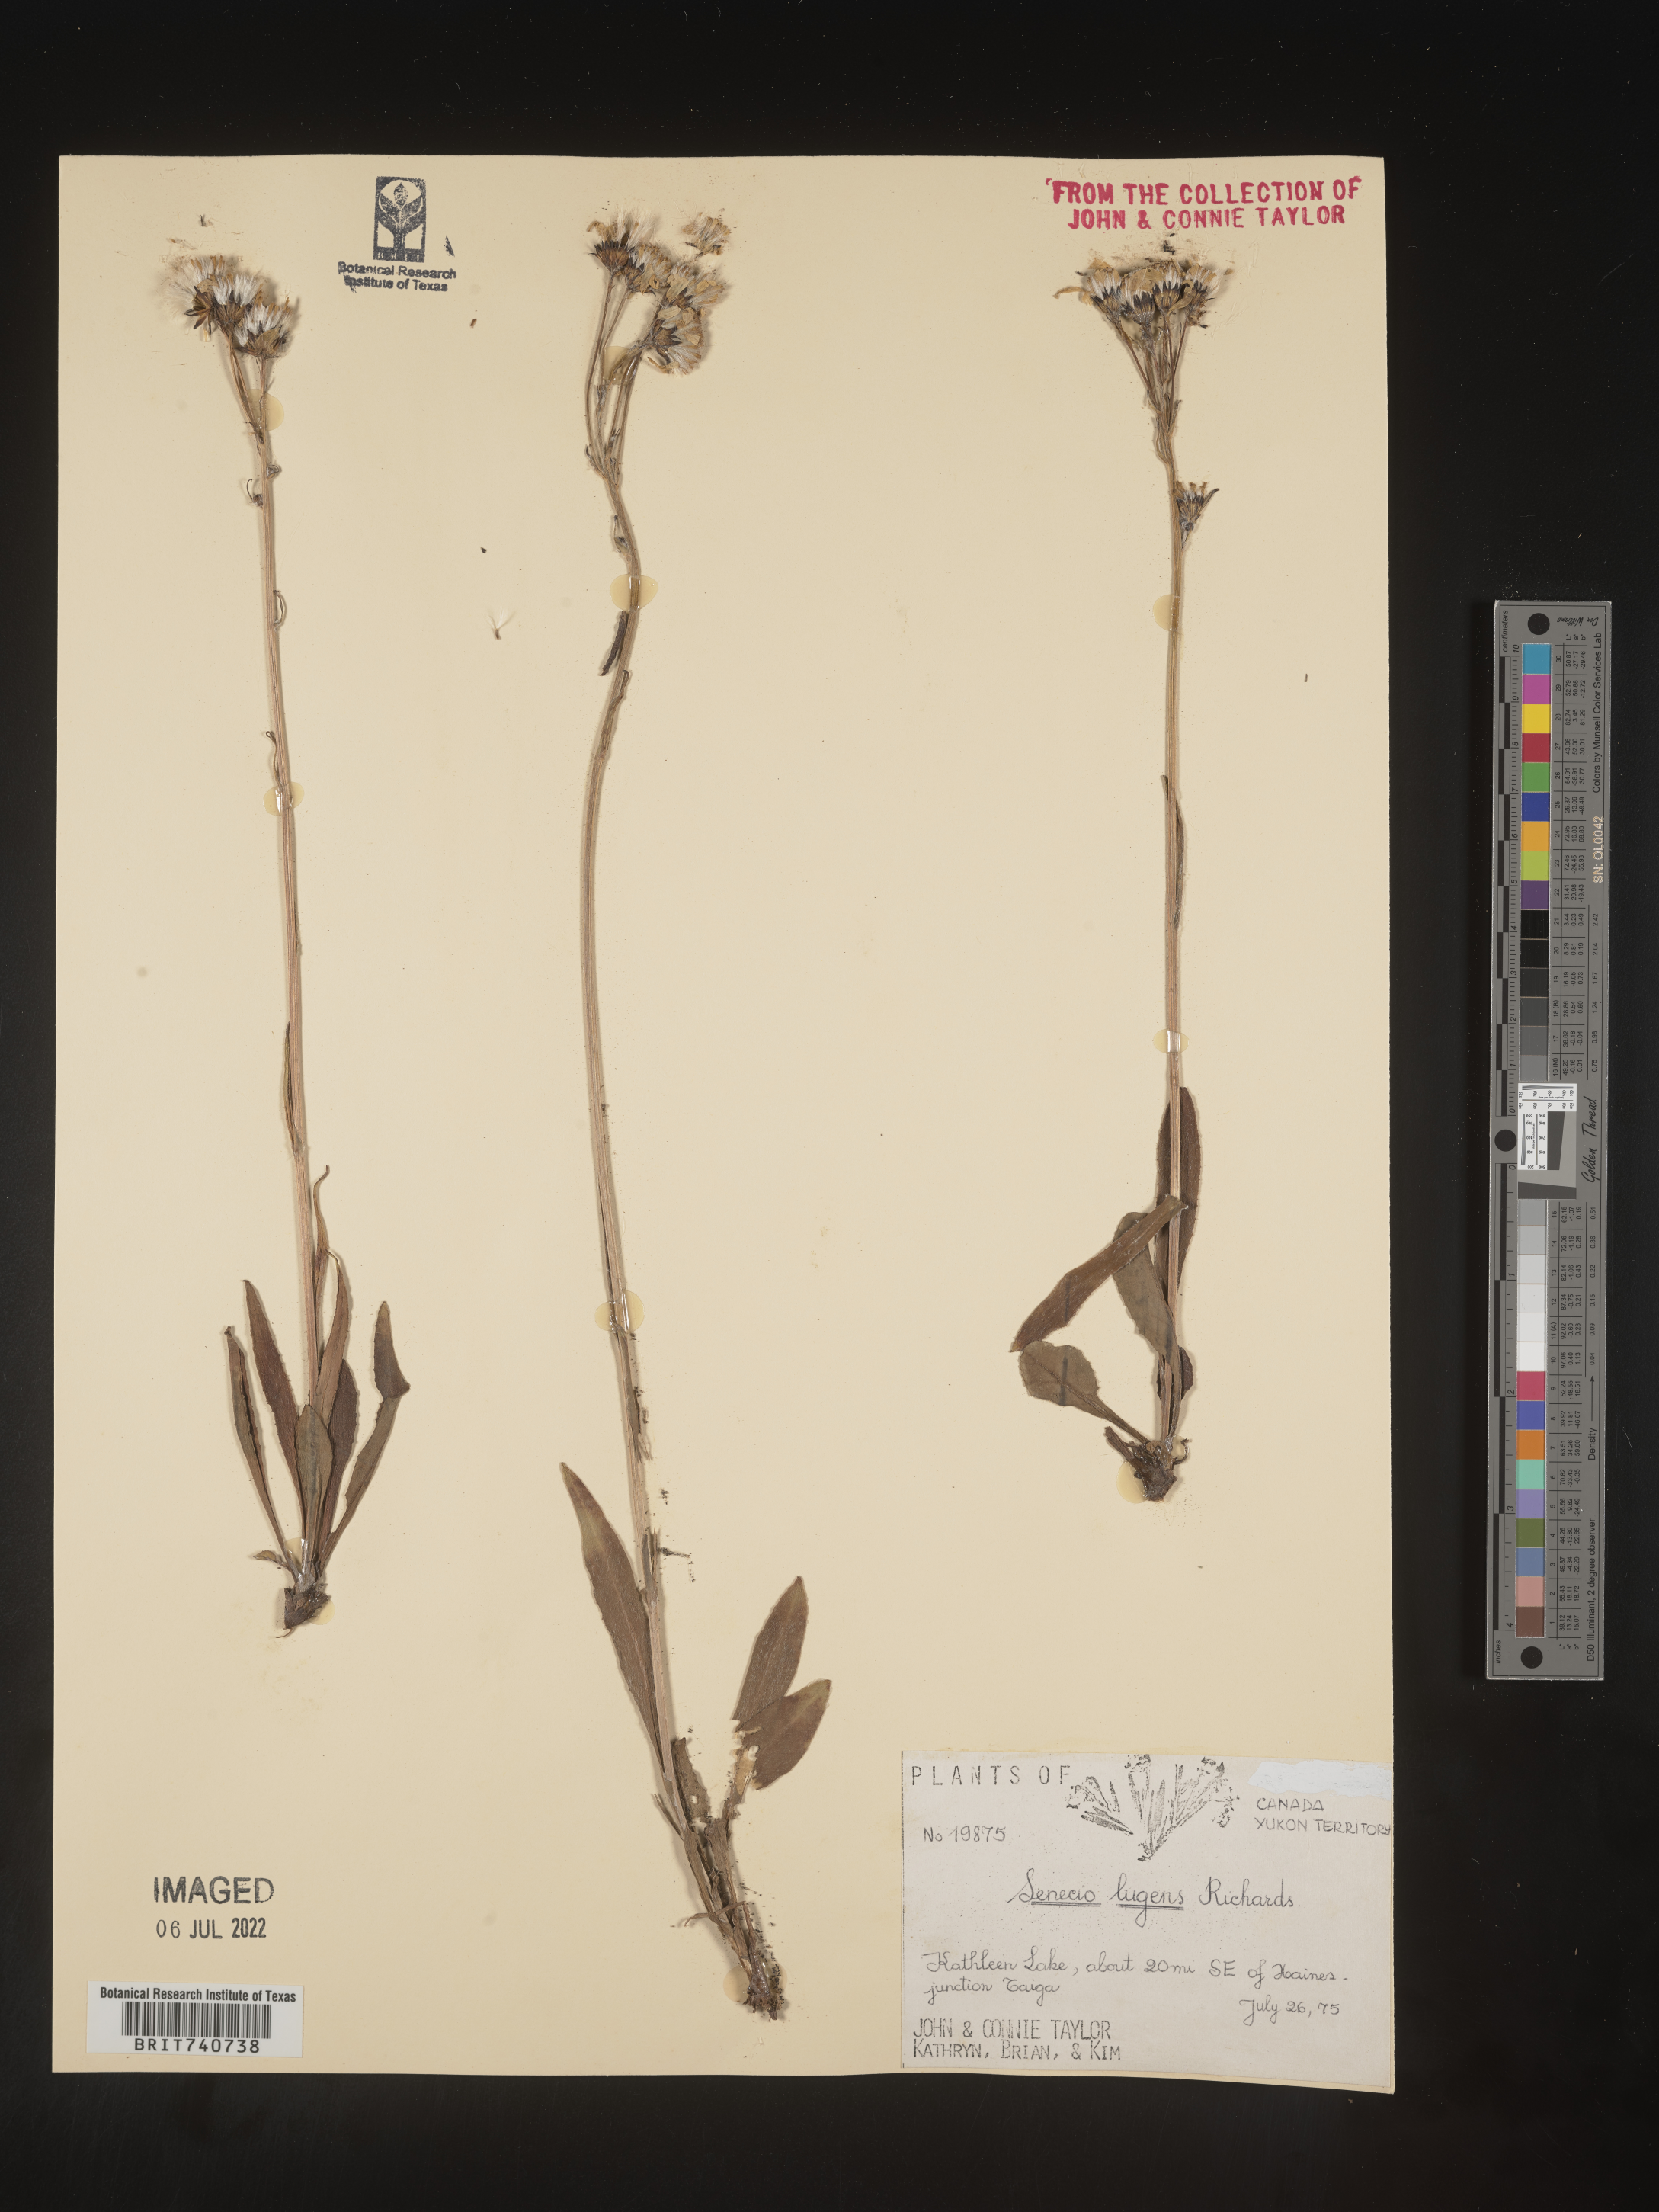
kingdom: Plantae
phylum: Tracheophyta
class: Magnoliopsida
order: Asterales
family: Asteraceae
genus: Senecio
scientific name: Senecio lugens
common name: Black-tip groundsel
